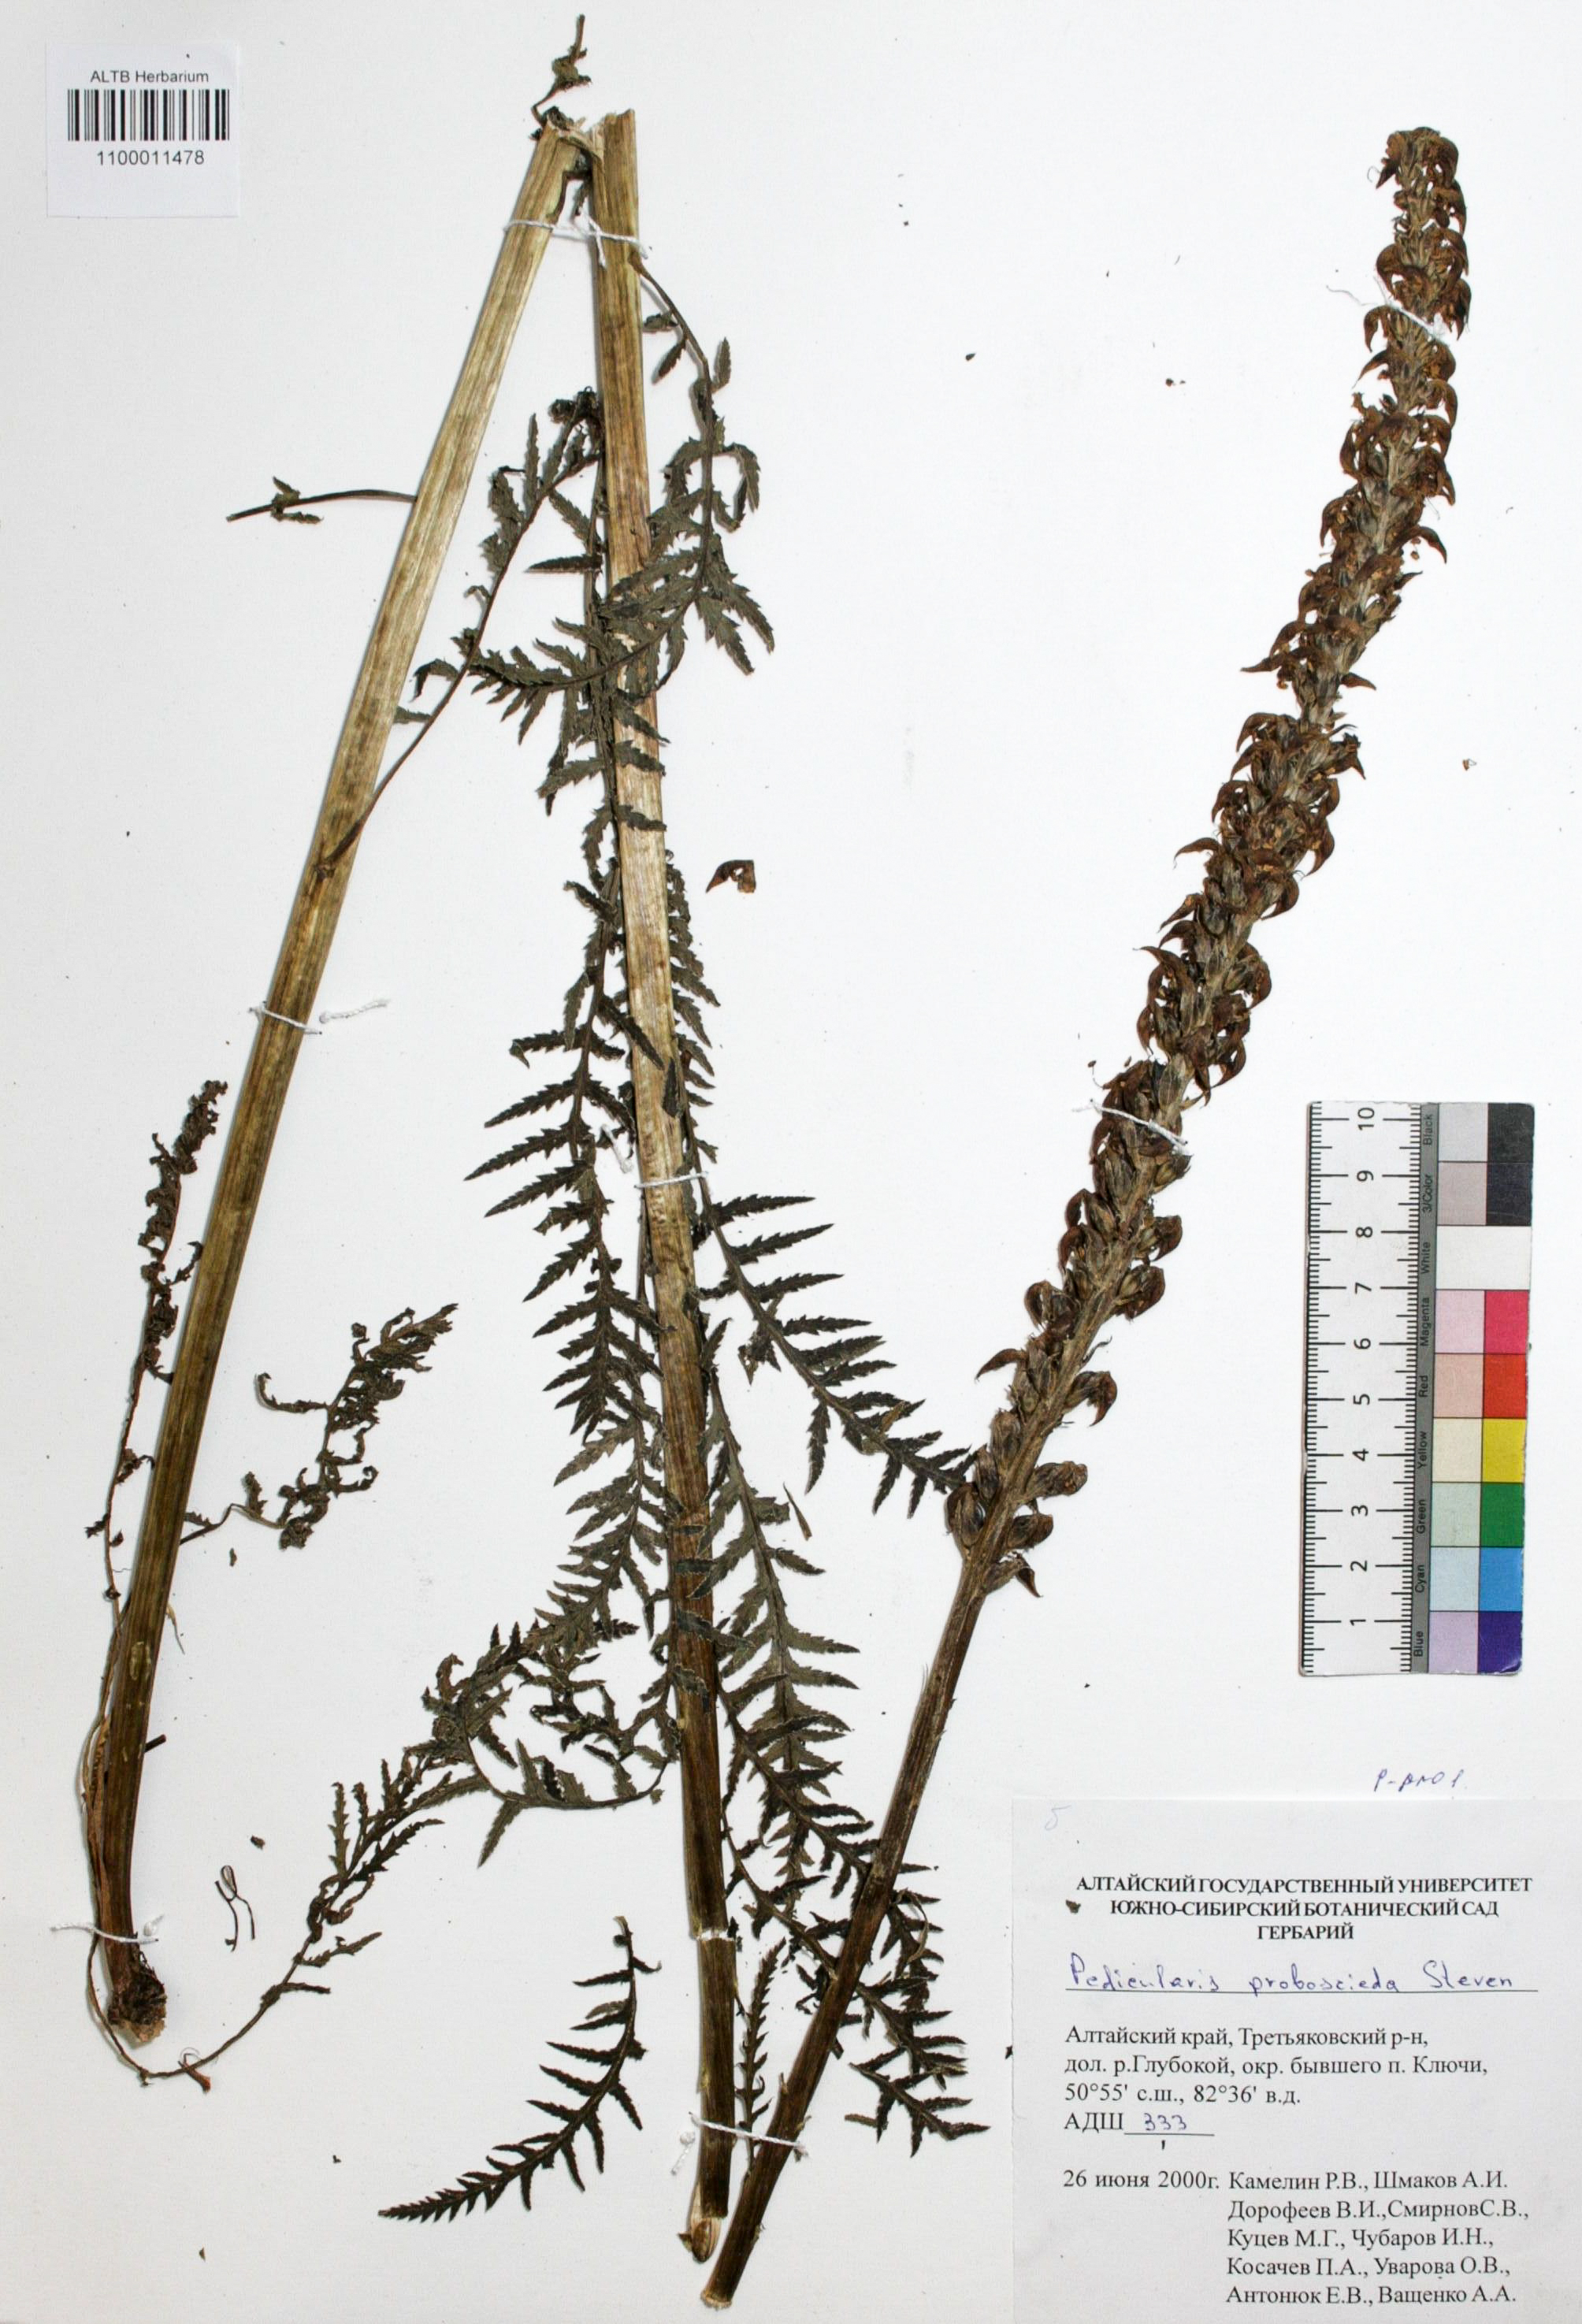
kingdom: Plantae
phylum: Tracheophyta
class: Magnoliopsida
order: Lamiales
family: Orobanchaceae
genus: Pedicularis
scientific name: Pedicularis proboscidea
